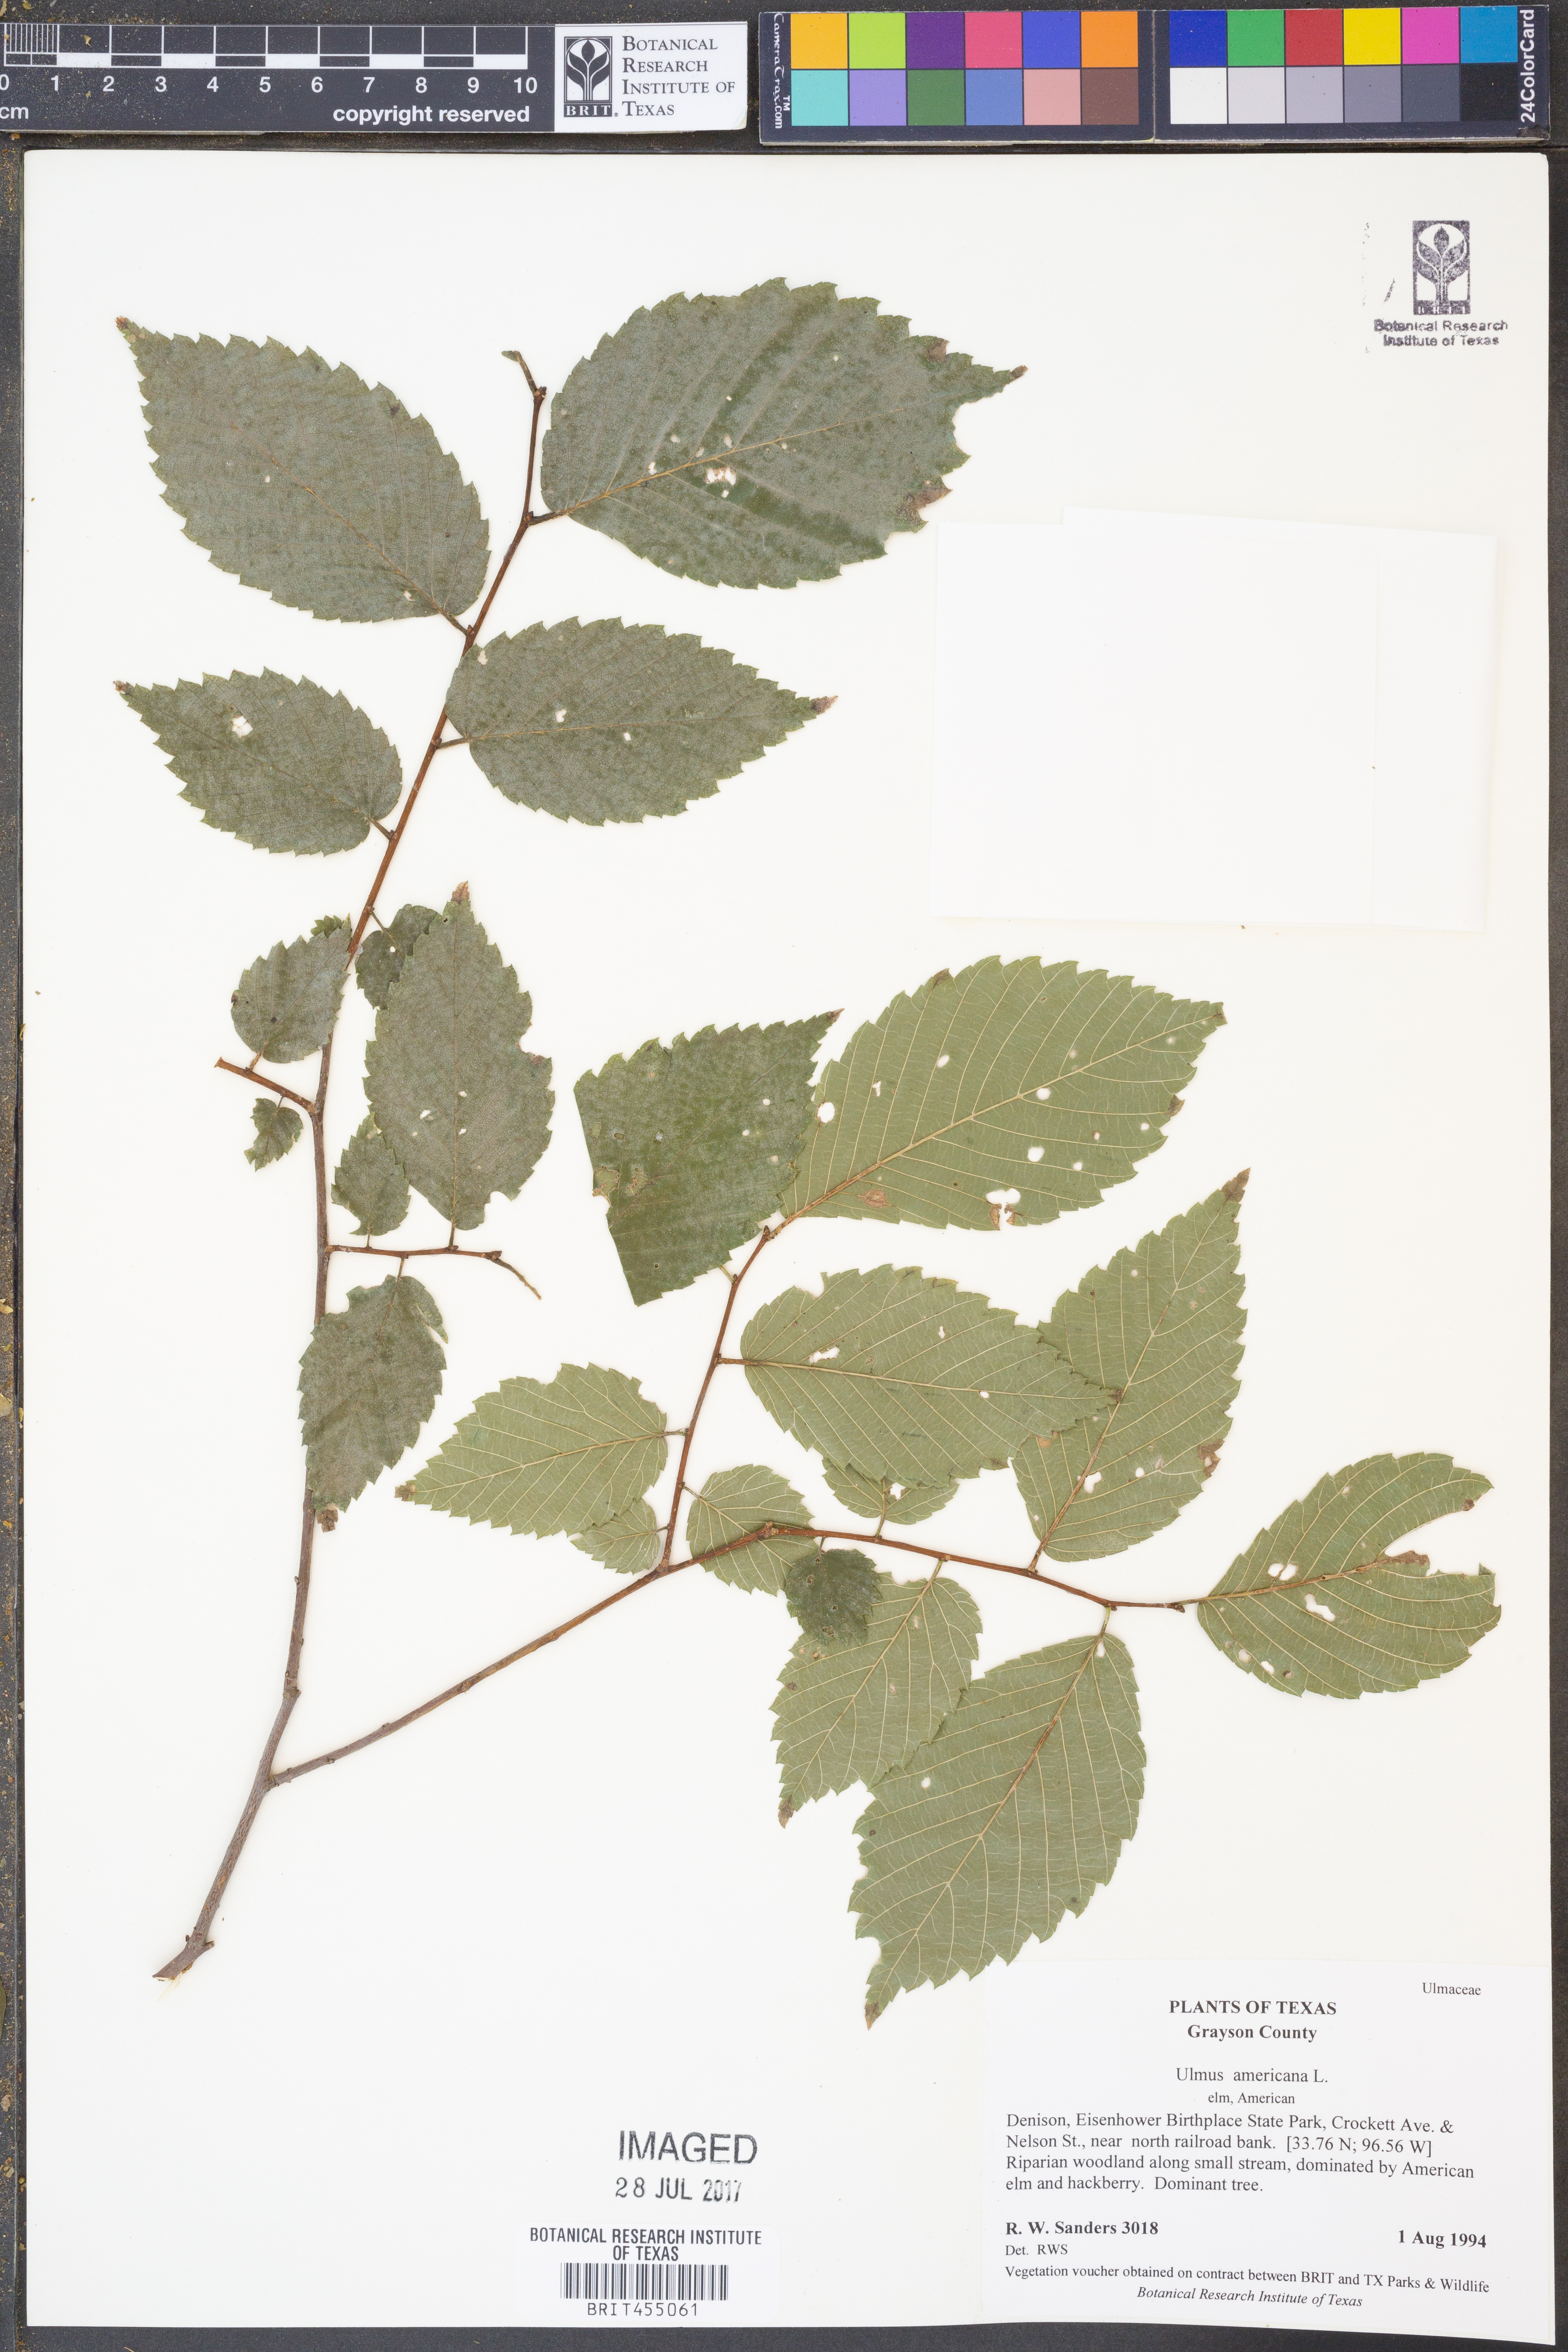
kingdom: Plantae
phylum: Tracheophyta
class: Magnoliopsida
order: Rosales
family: Ulmaceae
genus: Ulmus
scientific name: Ulmus americana
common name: American elm
